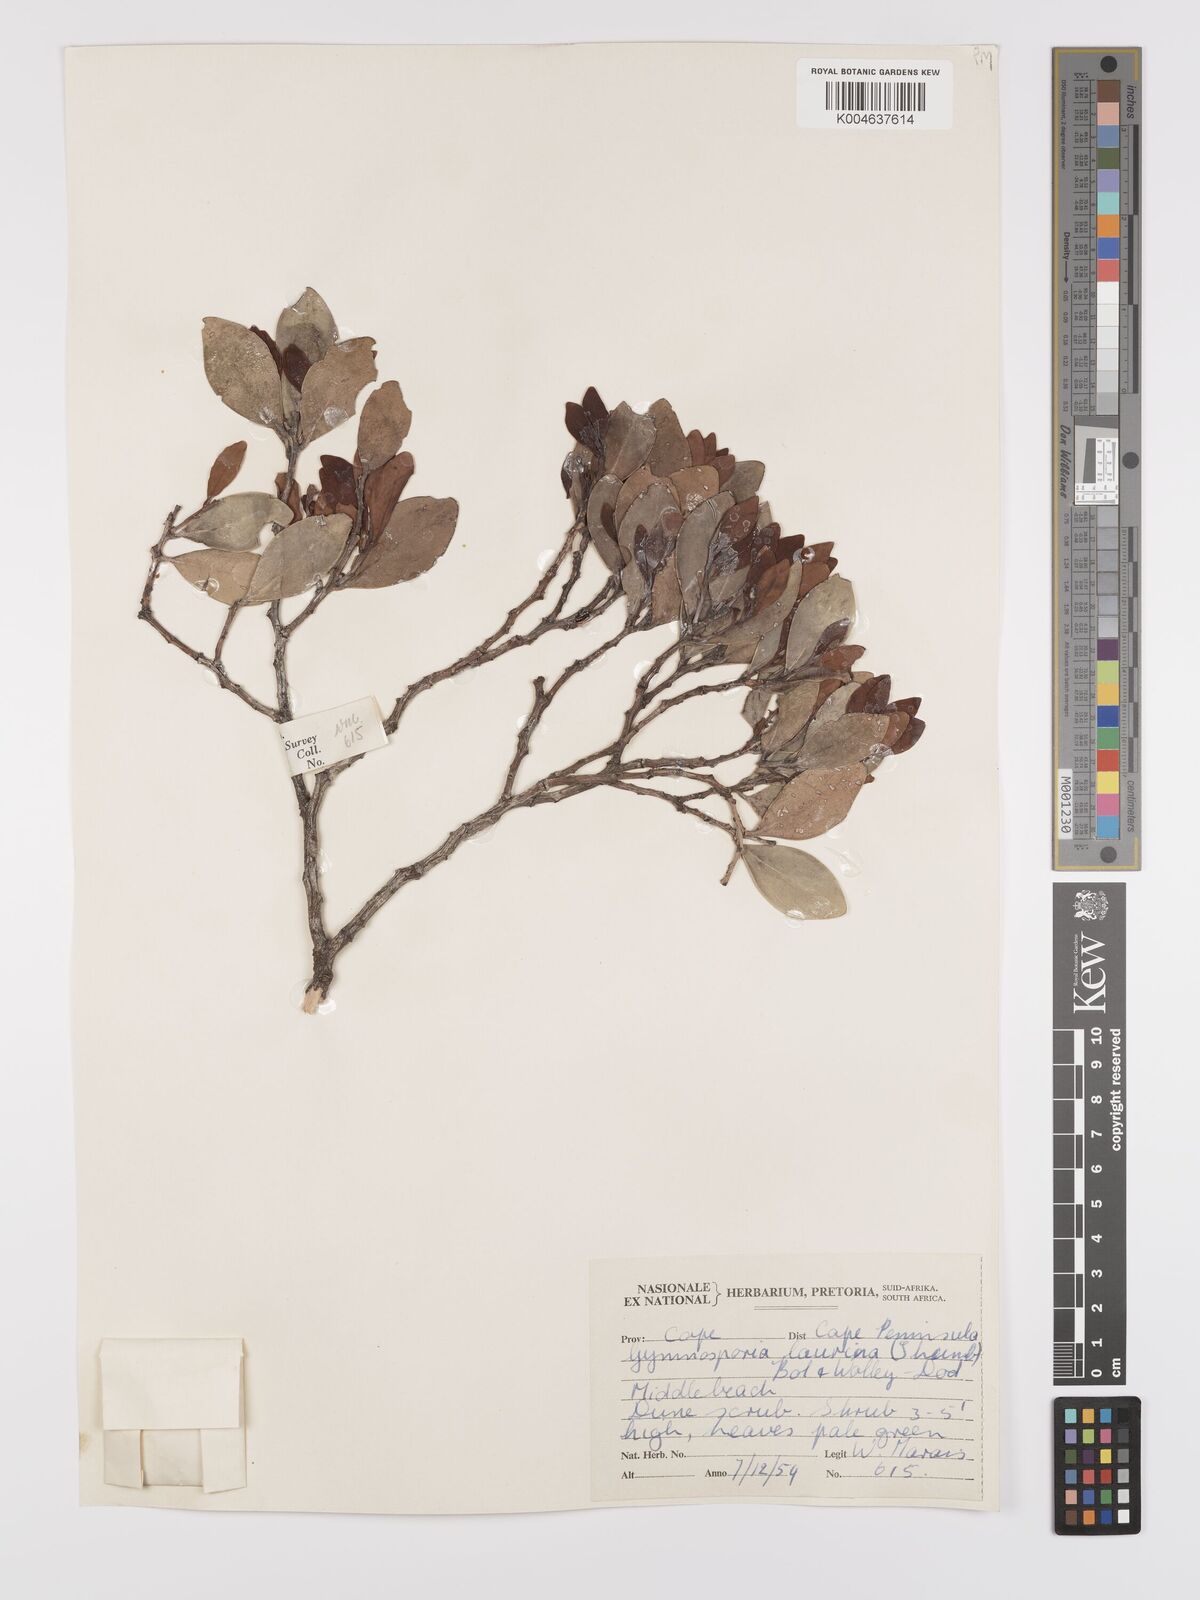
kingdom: Plantae
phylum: Tracheophyta
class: Magnoliopsida
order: Celastrales
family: Celastraceae
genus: Monteverdia
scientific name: Monteverdia laurina
